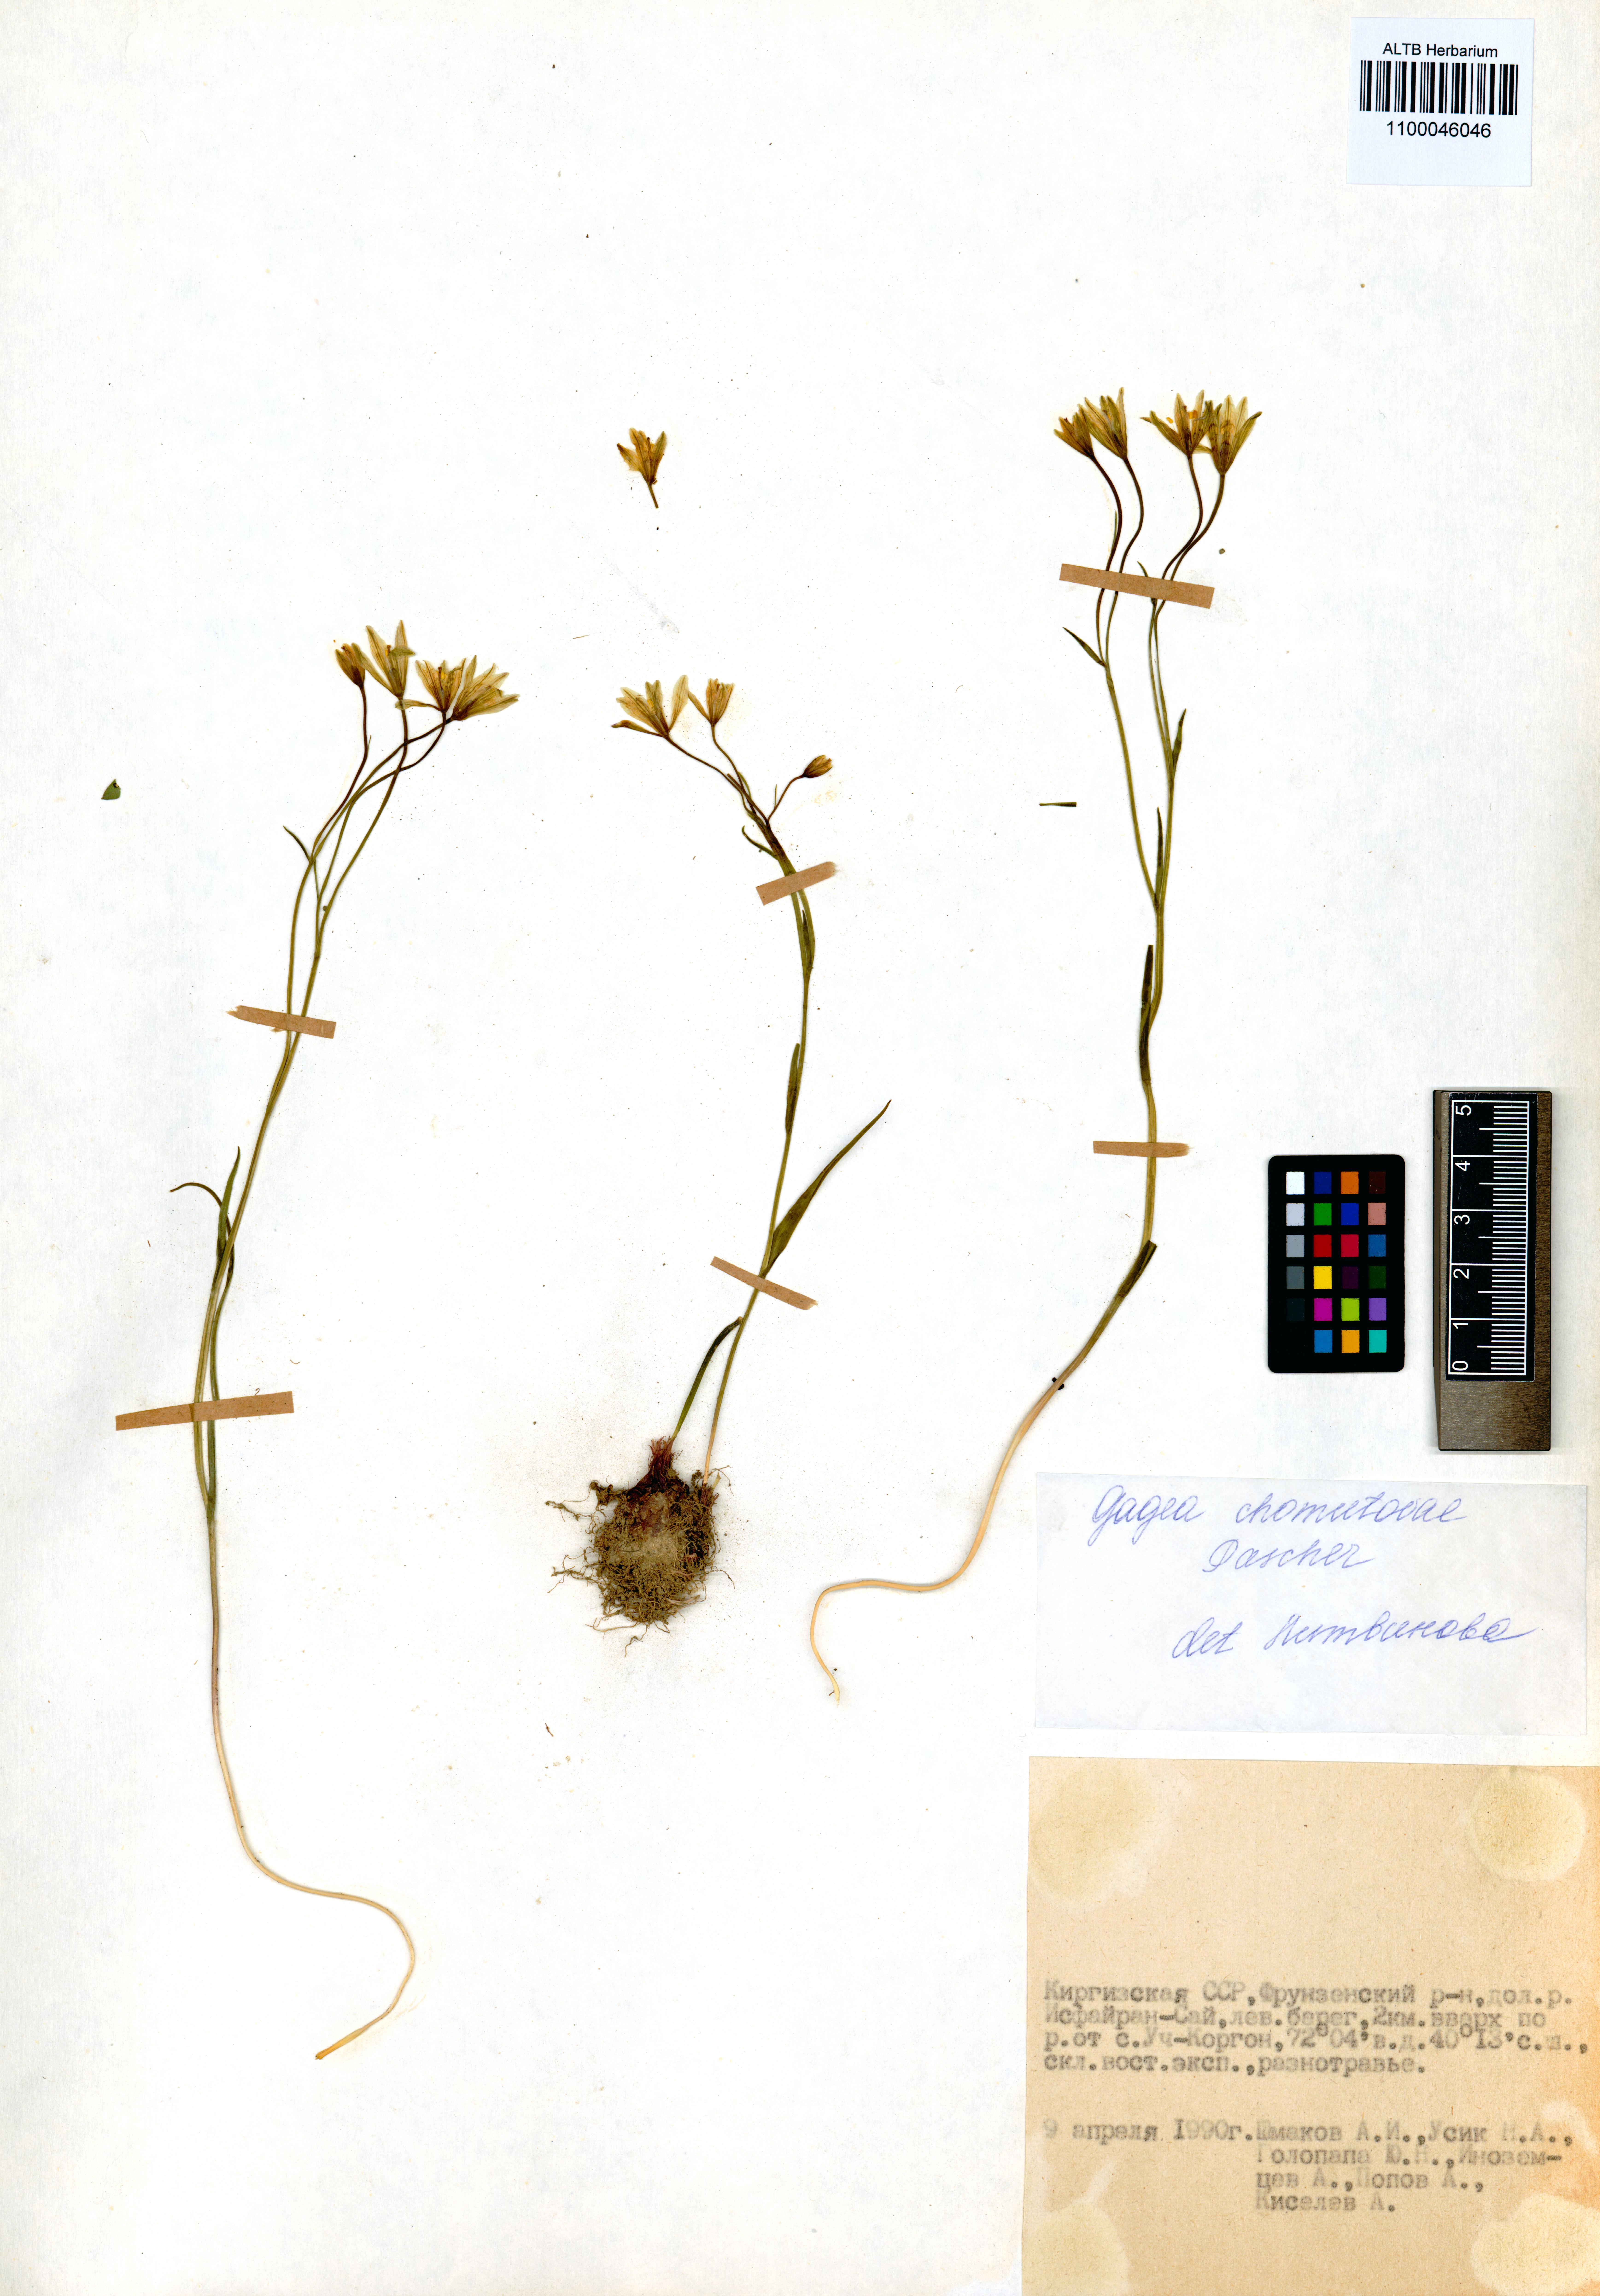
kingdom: Plantae
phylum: Tracheophyta
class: Liliopsida
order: Liliales
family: Liliaceae
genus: Gagea
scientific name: Gagea chomutowae
